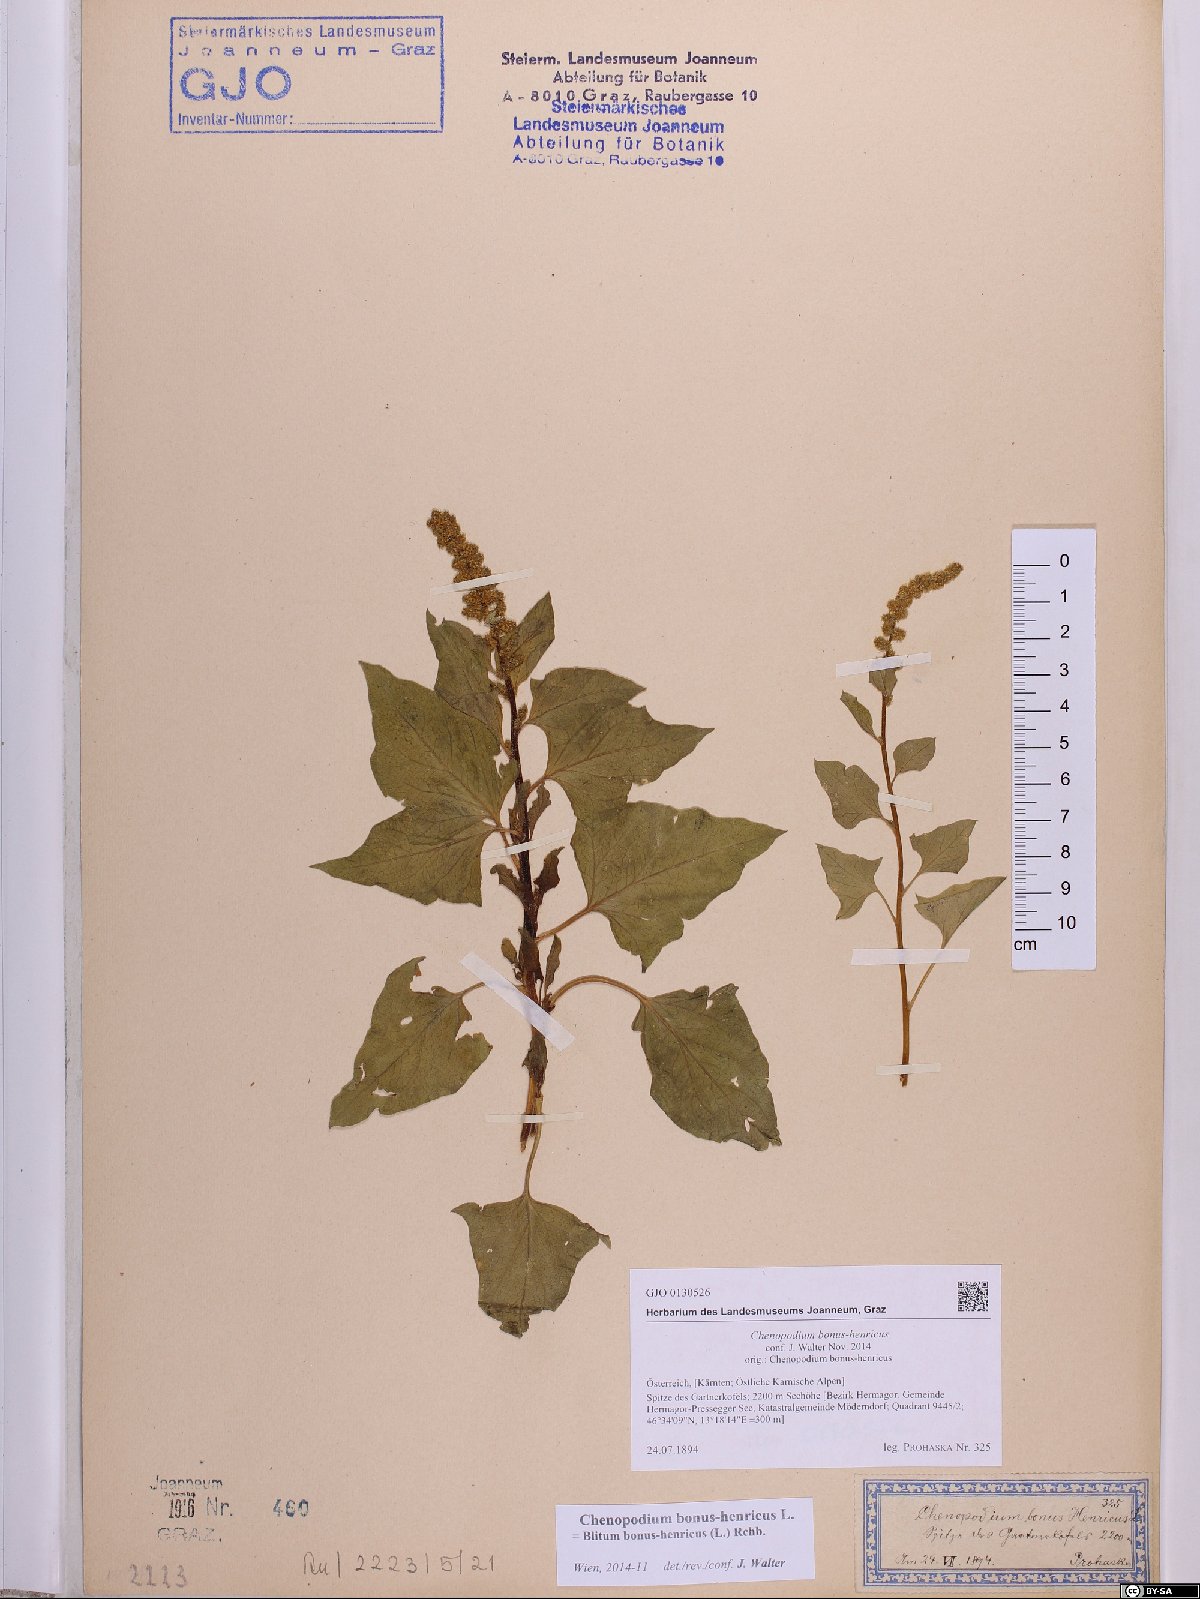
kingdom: Plantae
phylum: Tracheophyta
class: Magnoliopsida
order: Caryophyllales
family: Amaranthaceae
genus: Blitum
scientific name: Blitum bonus-henricus
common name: Good king henry
